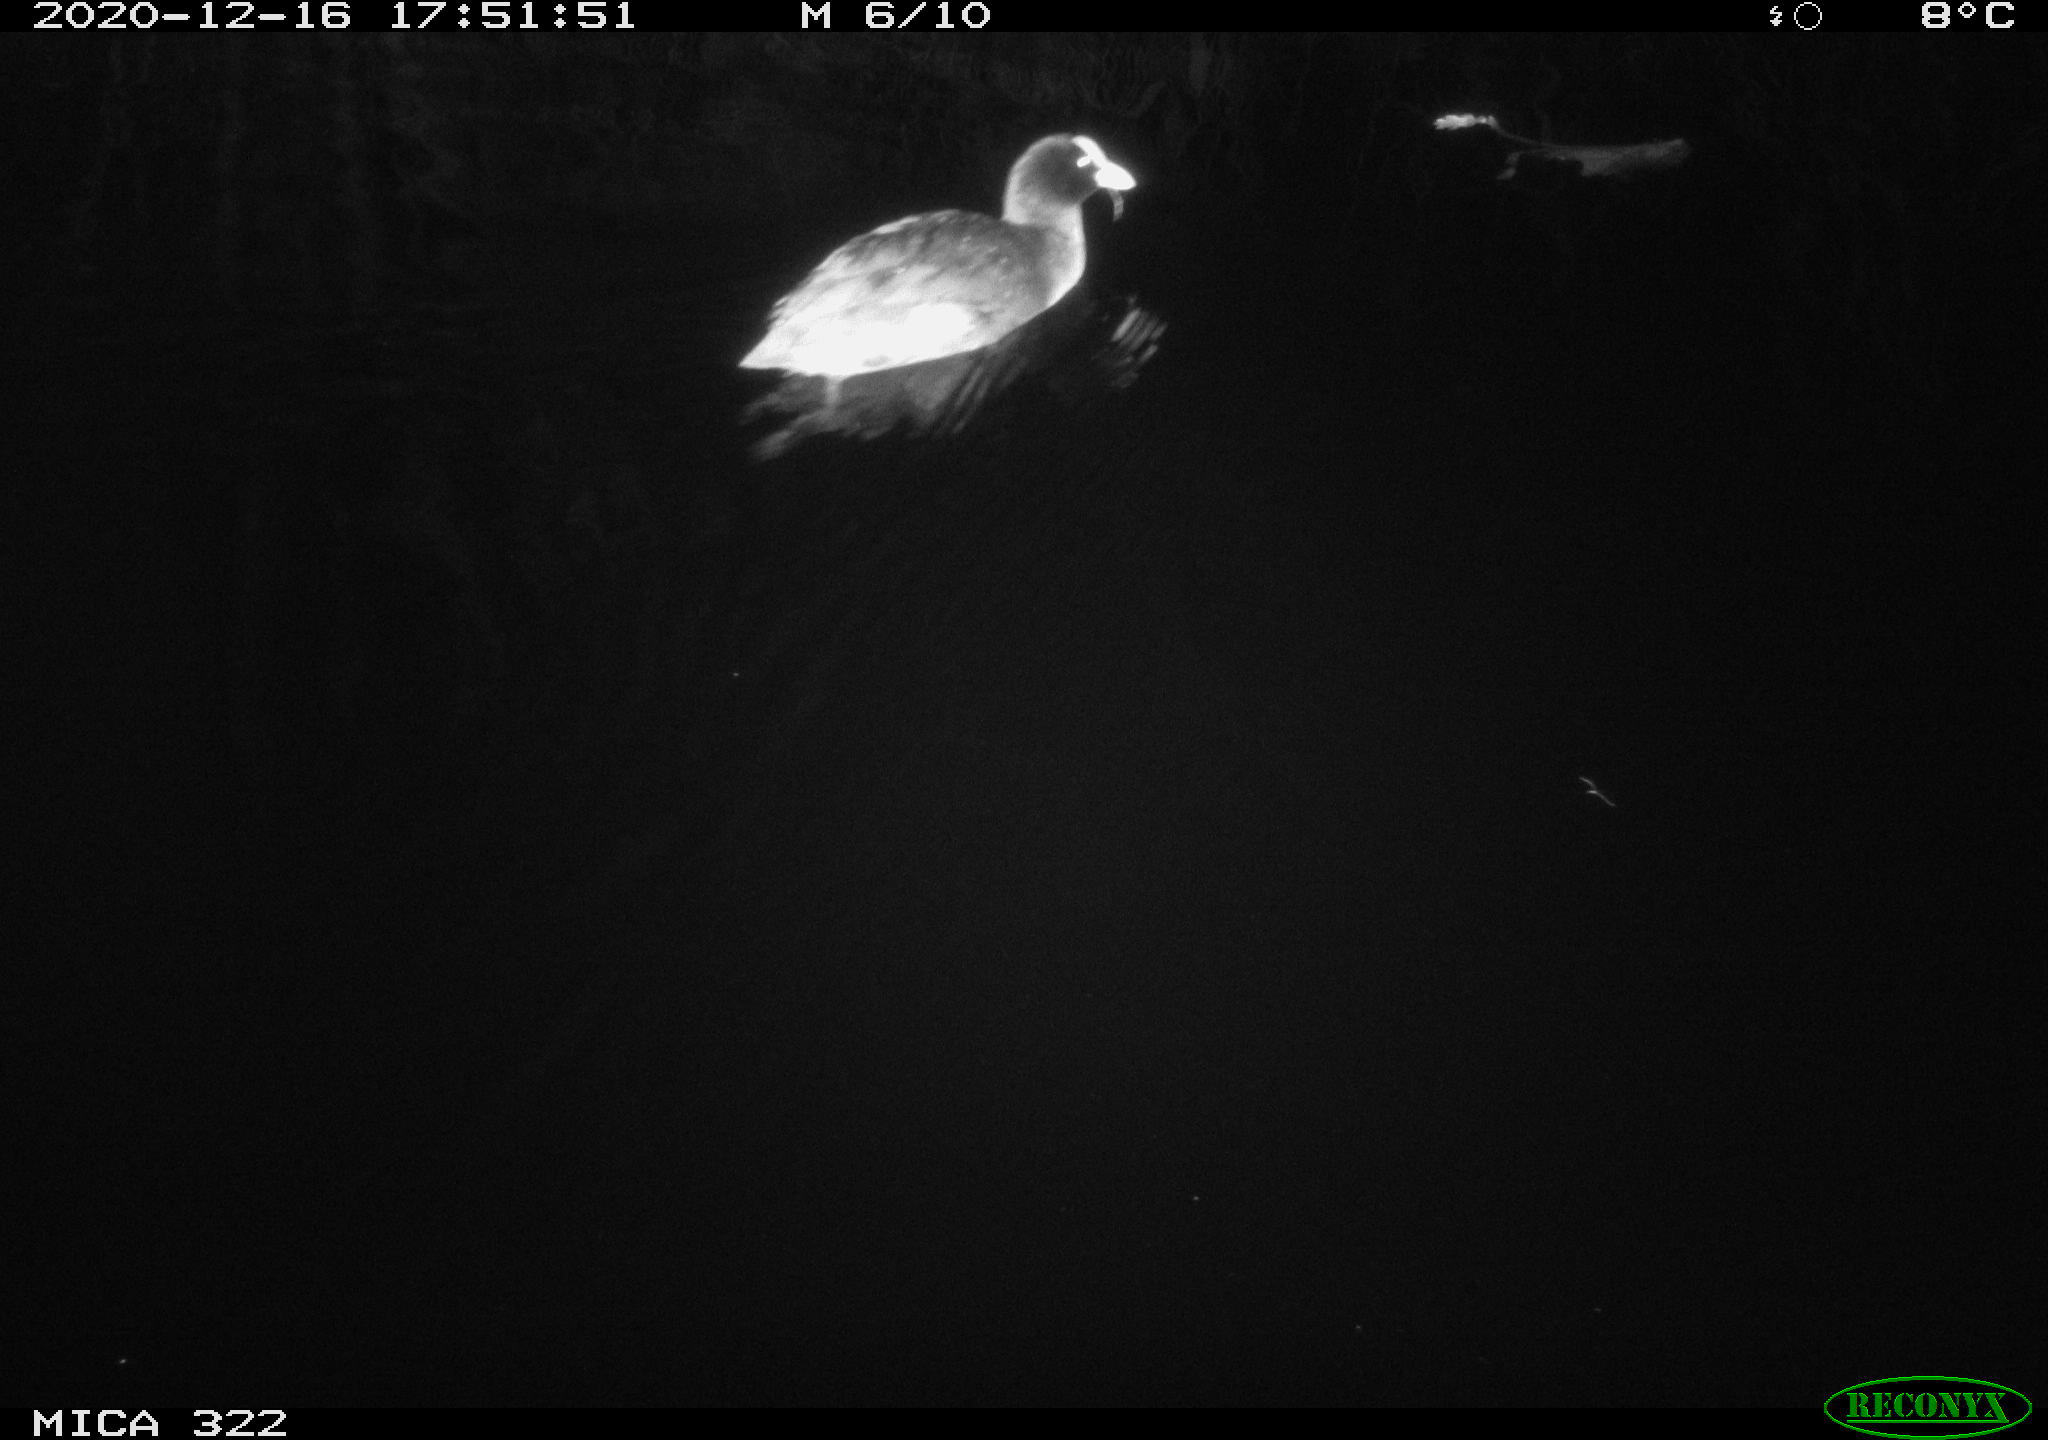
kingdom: Animalia
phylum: Chordata
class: Aves
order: Gruiformes
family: Rallidae
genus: Fulica
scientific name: Fulica atra
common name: Eurasian coot
